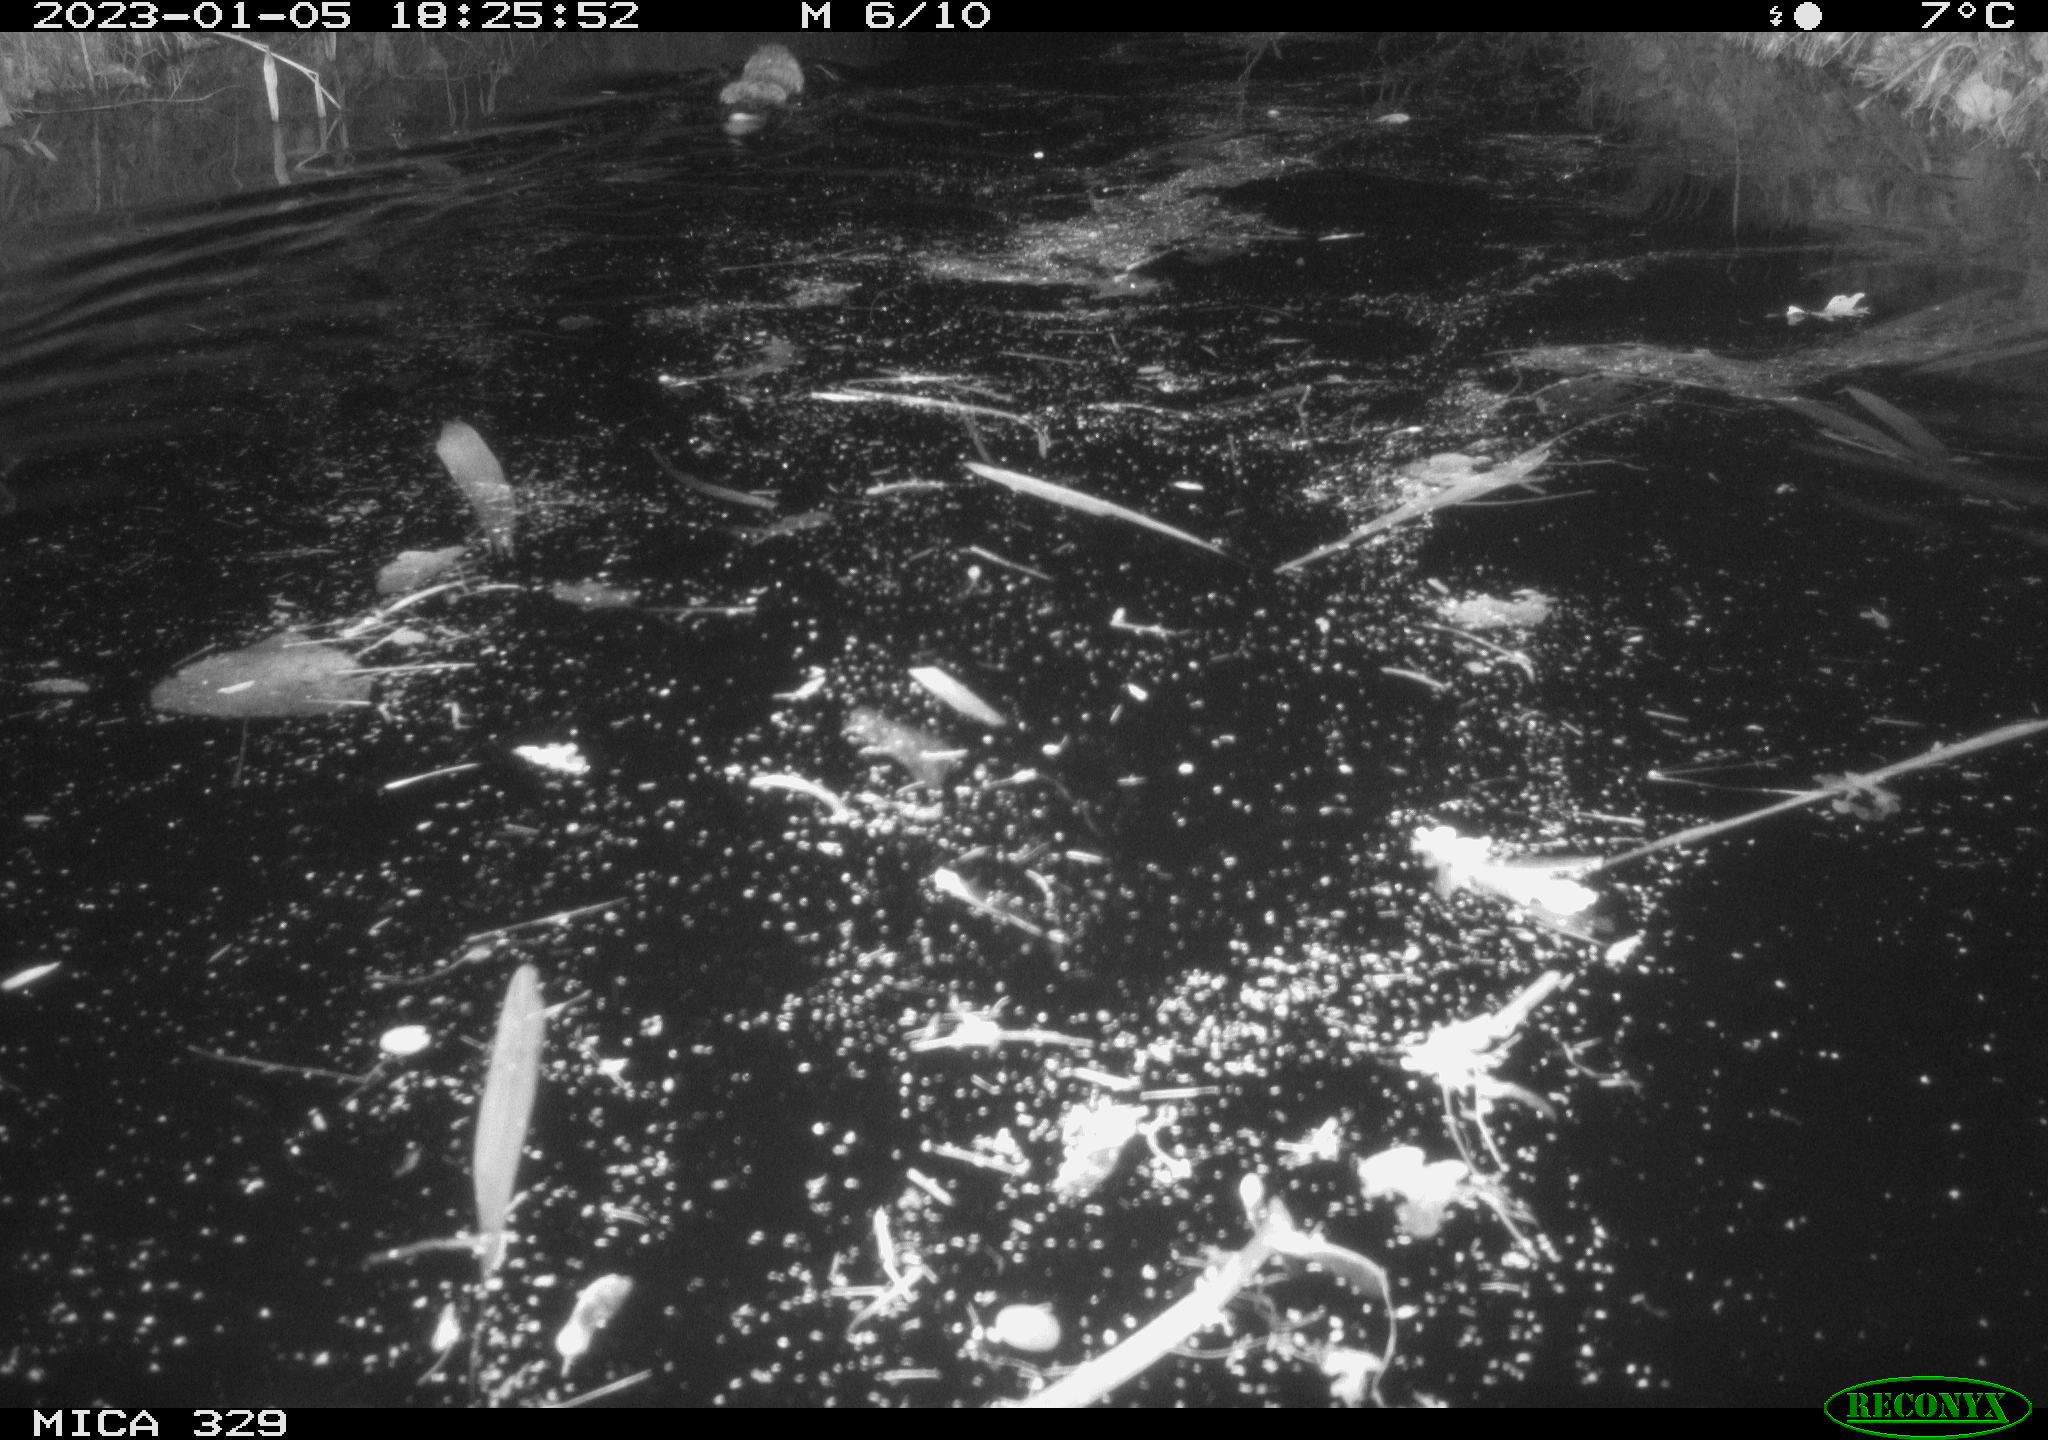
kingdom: Animalia
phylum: Chordata
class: Mammalia
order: Rodentia
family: Cricetidae
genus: Ondatra
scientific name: Ondatra zibethicus
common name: Muskrat
